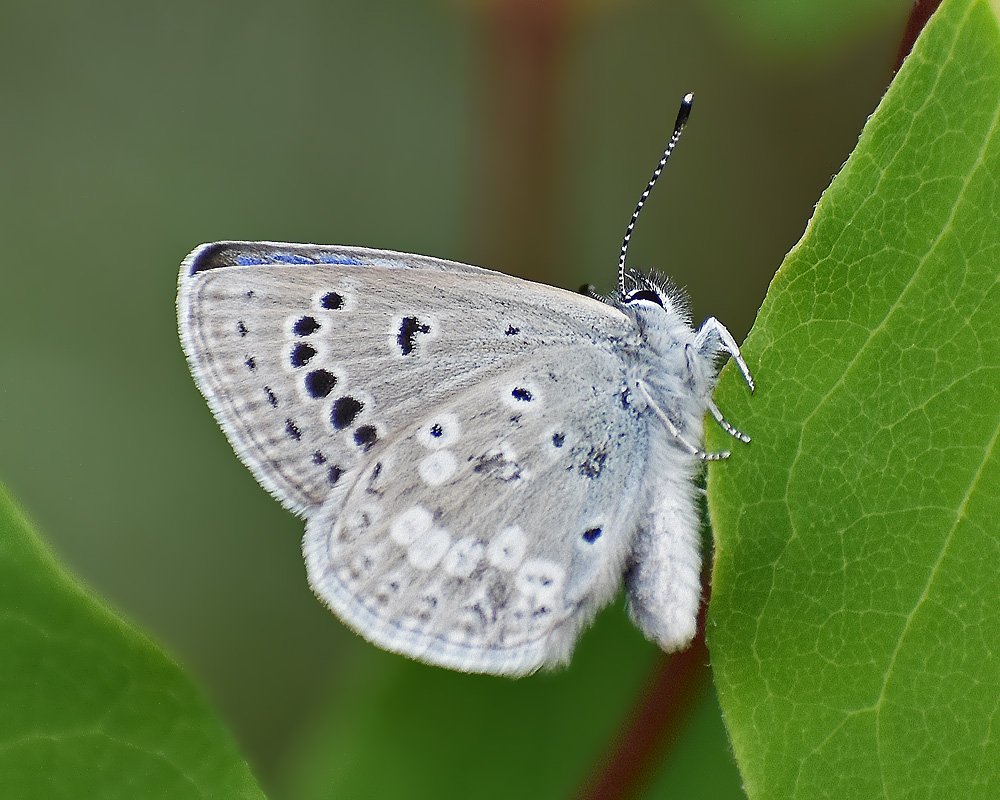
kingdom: Animalia
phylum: Arthropoda
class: Insecta
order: Lepidoptera
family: Lycaenidae
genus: Icaricia
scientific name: Icaricia icarioides
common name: Boisduval's Blue
